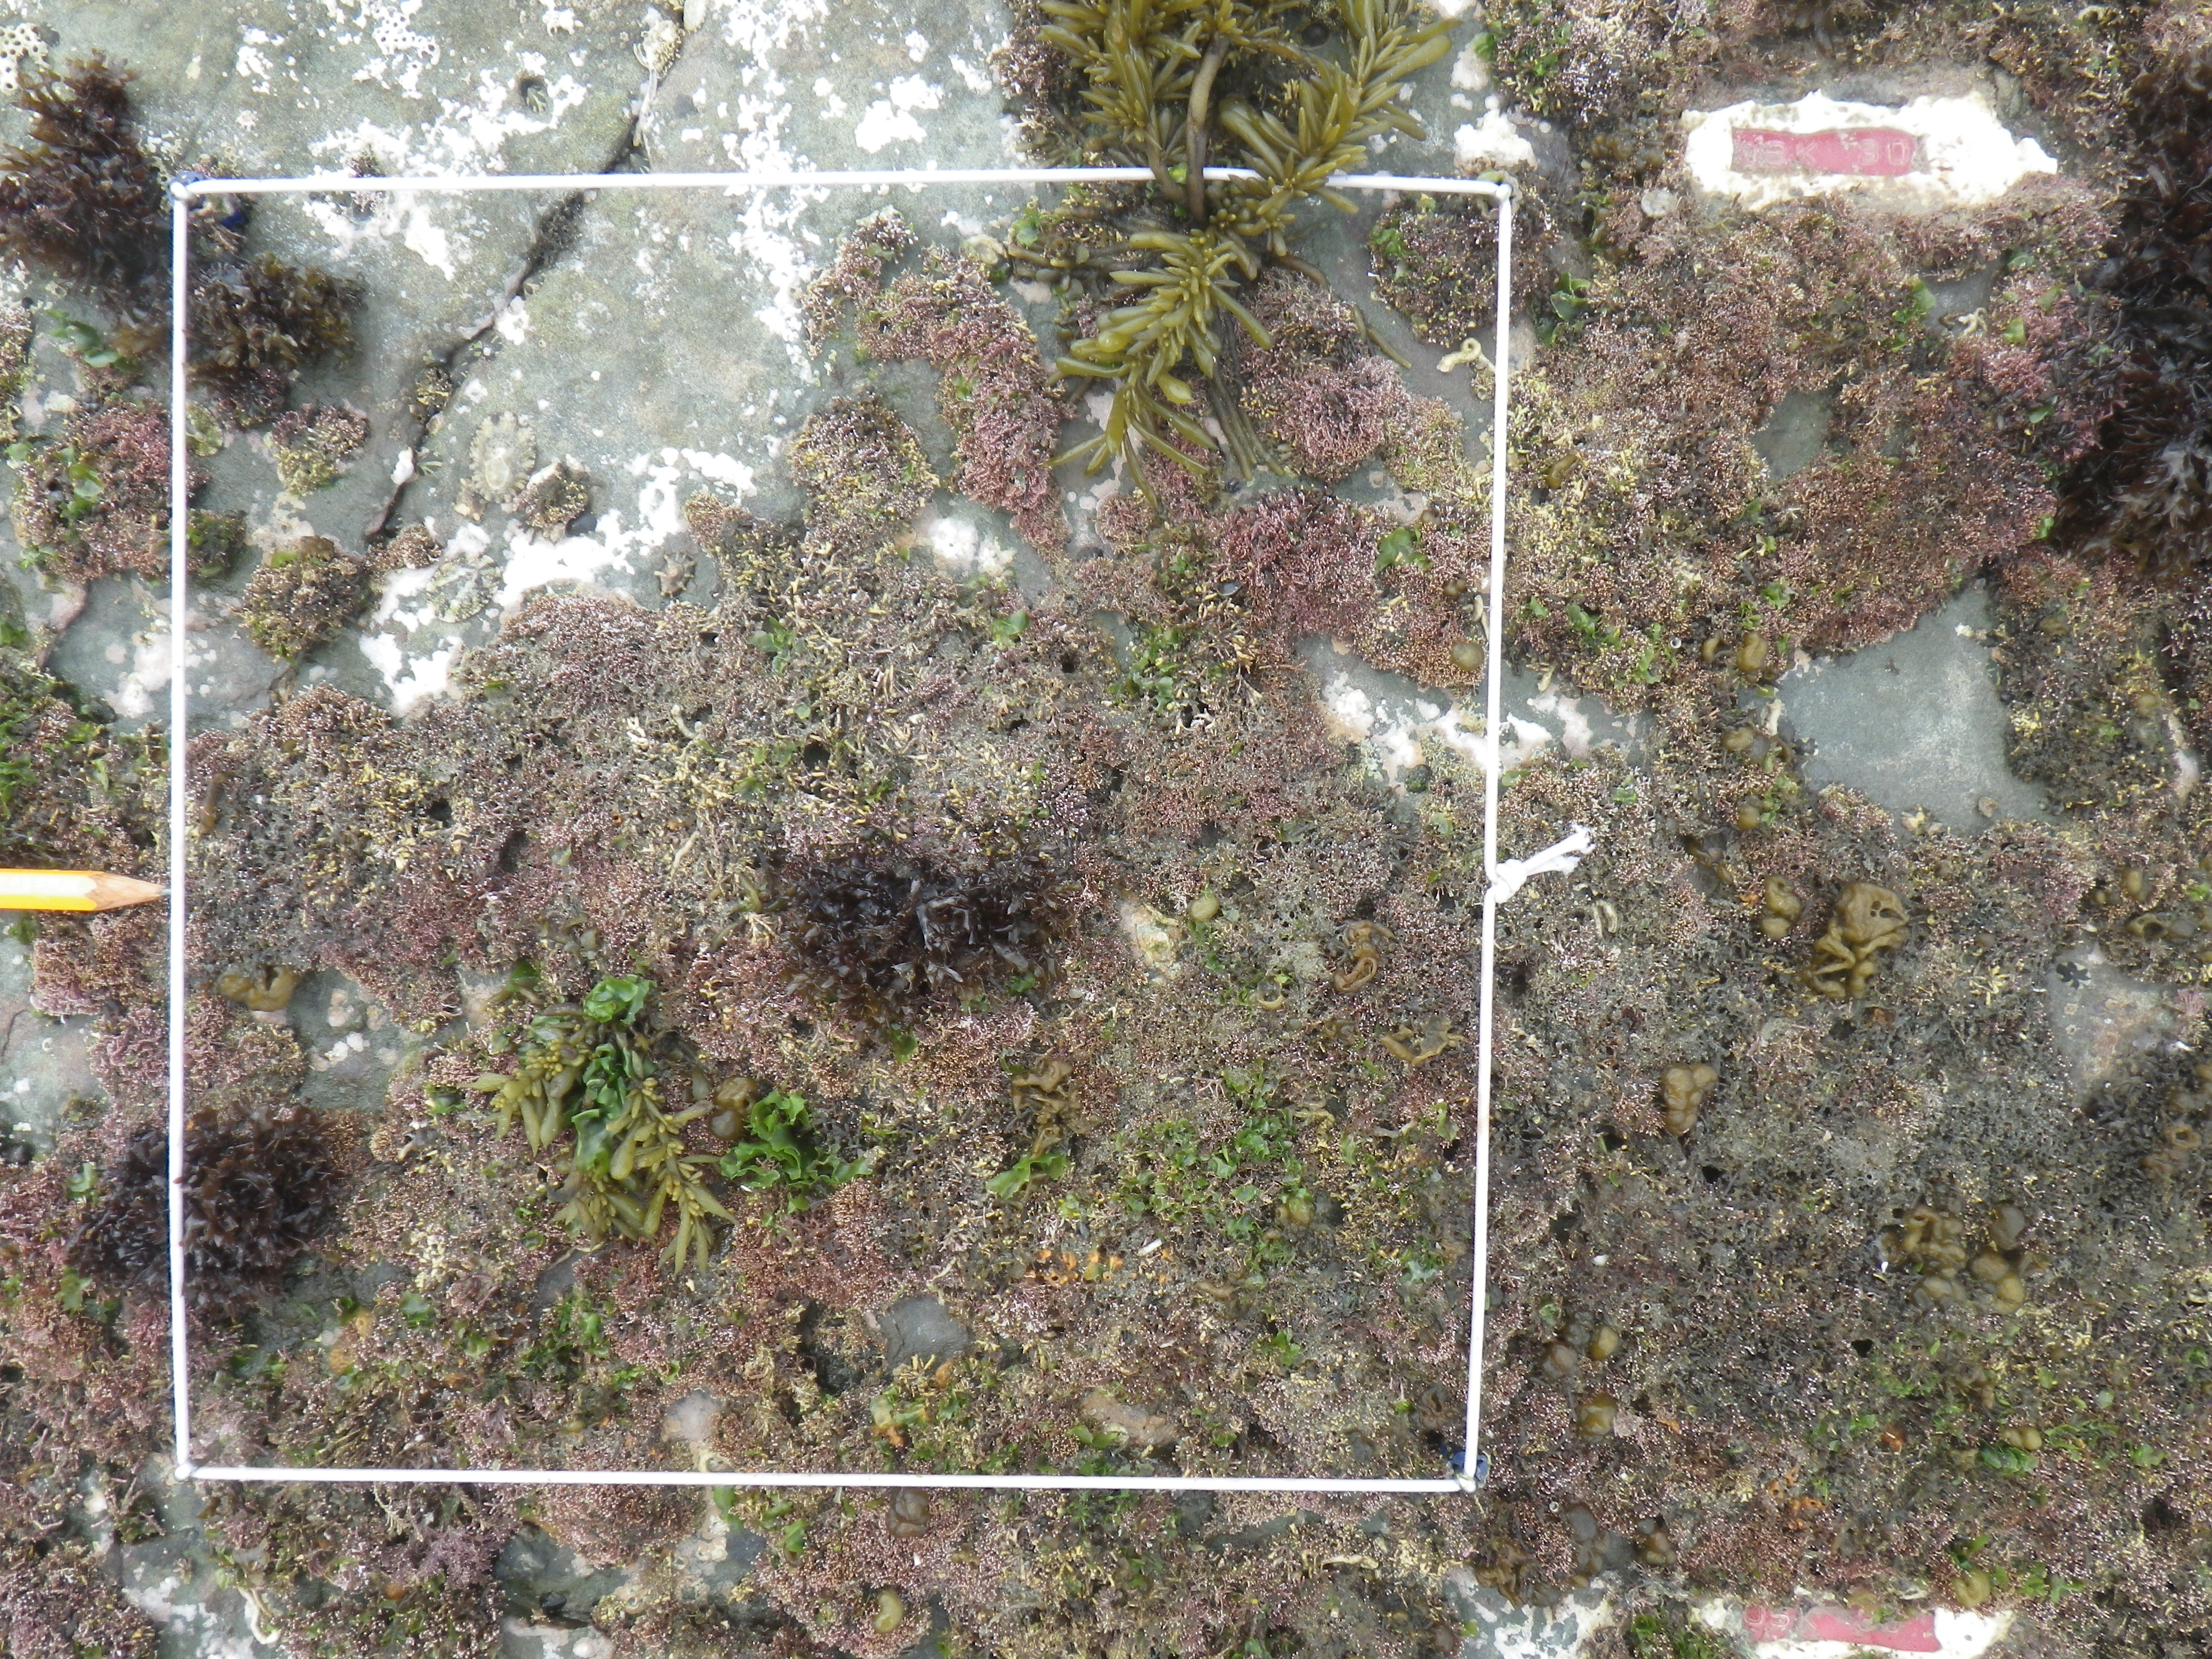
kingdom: Animalia
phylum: Arthropoda
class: Maxillopoda
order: Sessilia
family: Chthamalidae
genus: Chthamalus
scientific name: Chthamalus challengeri
